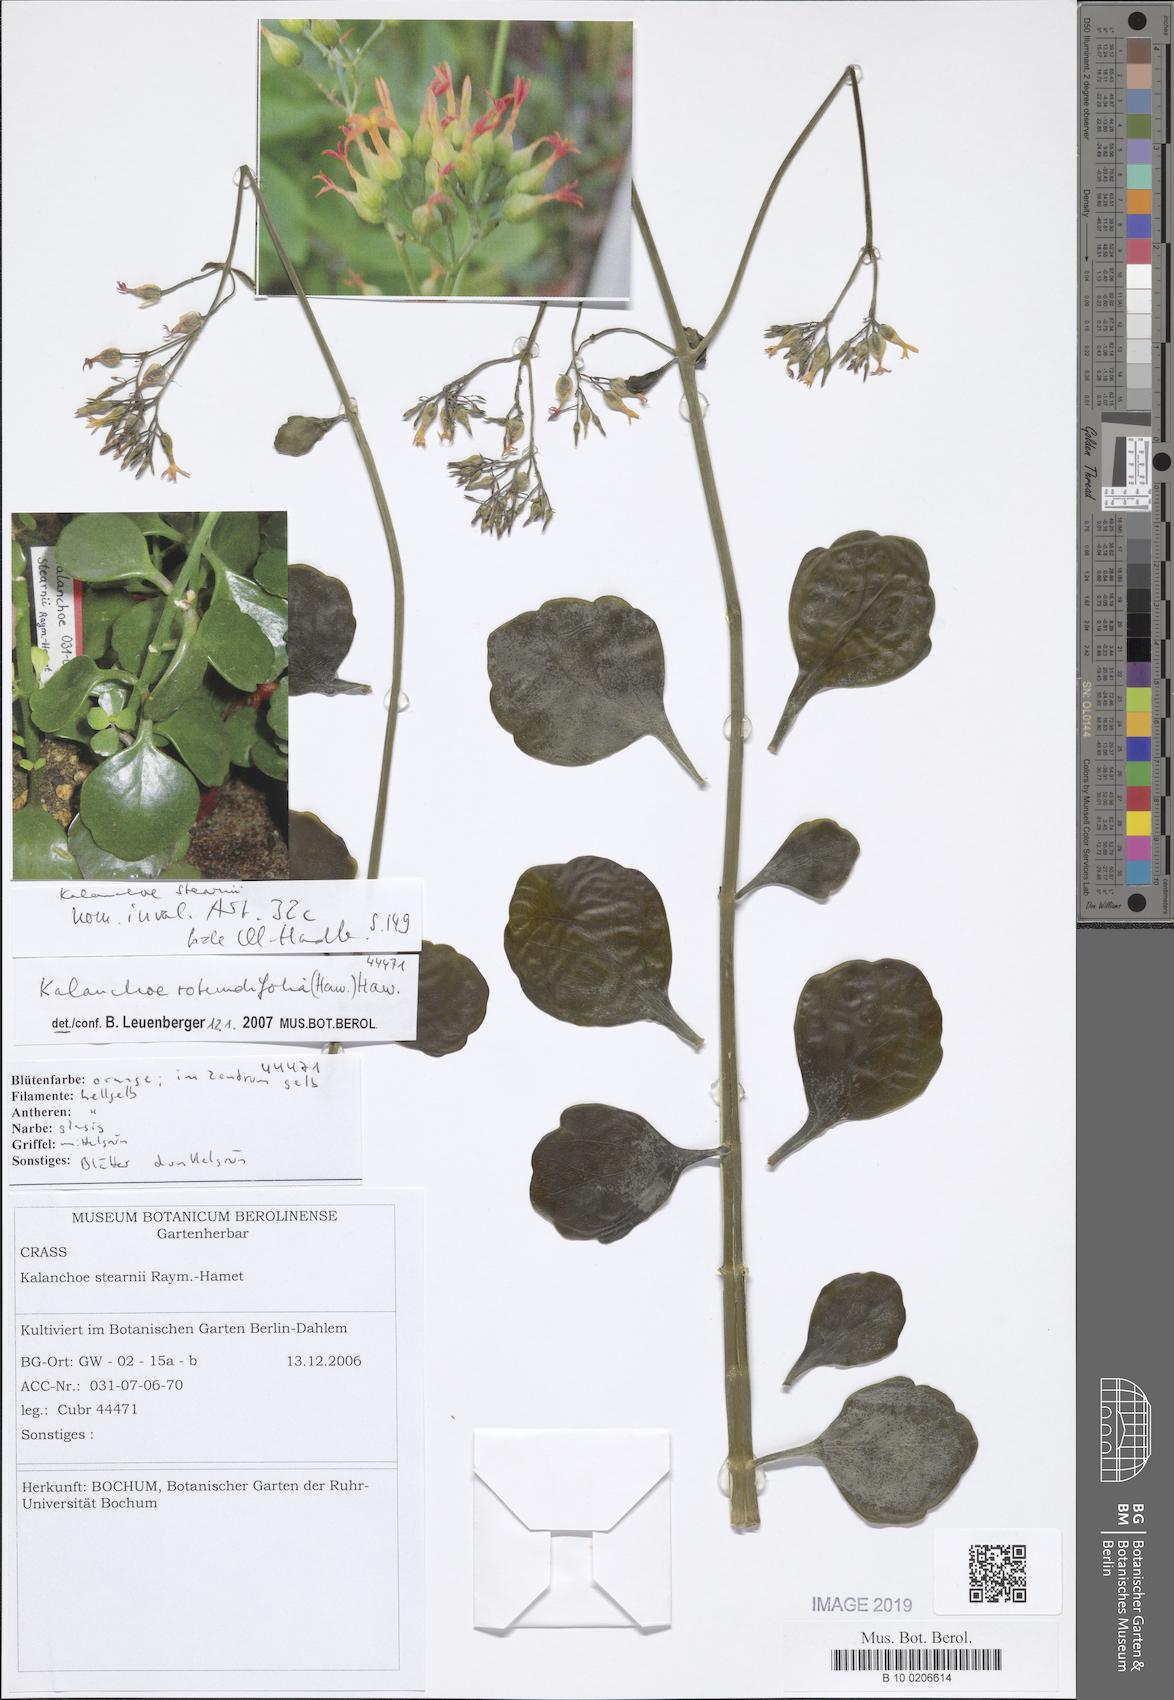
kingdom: Plantae
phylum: Tracheophyta
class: Magnoliopsida
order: Saxifragales
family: Crassulaceae
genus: Kalanchoe
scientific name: Kalanchoe rotundifolia
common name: Common kalanchoe
